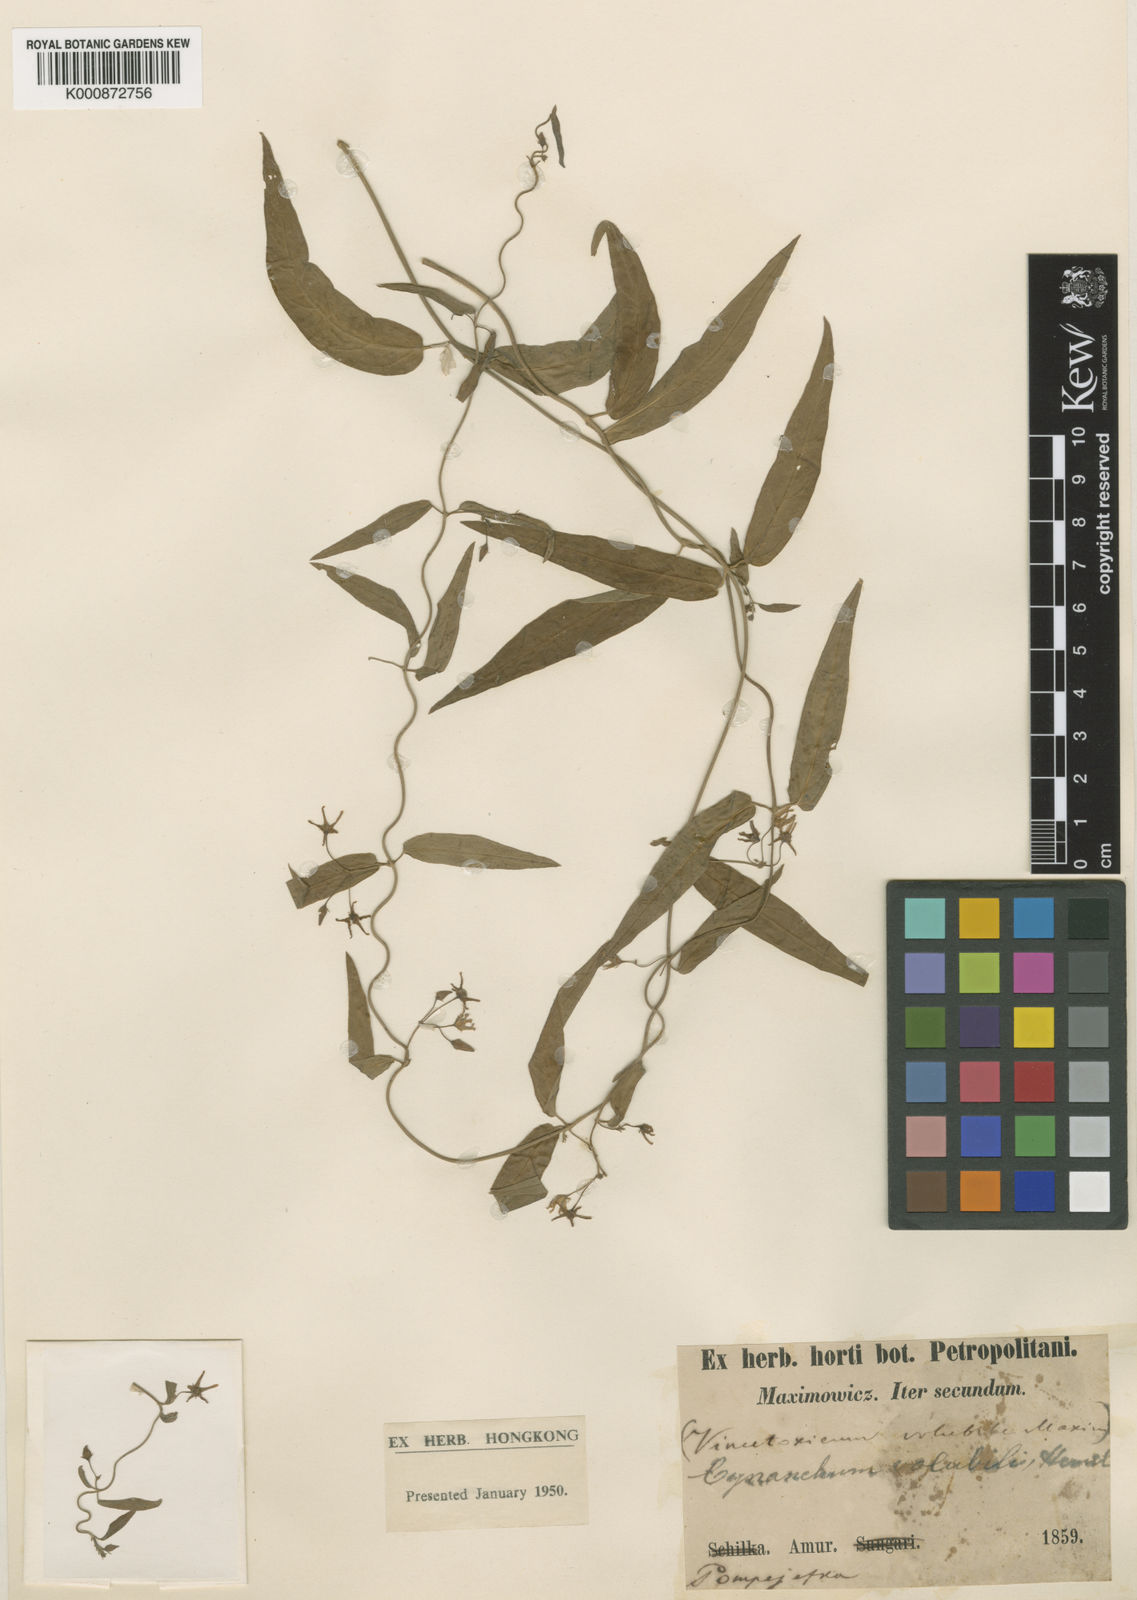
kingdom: Plantae
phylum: Tracheophyta
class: Magnoliopsida
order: Gentianales
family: Apocynaceae
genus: Vincetoxicum
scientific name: Vincetoxicum volubile
